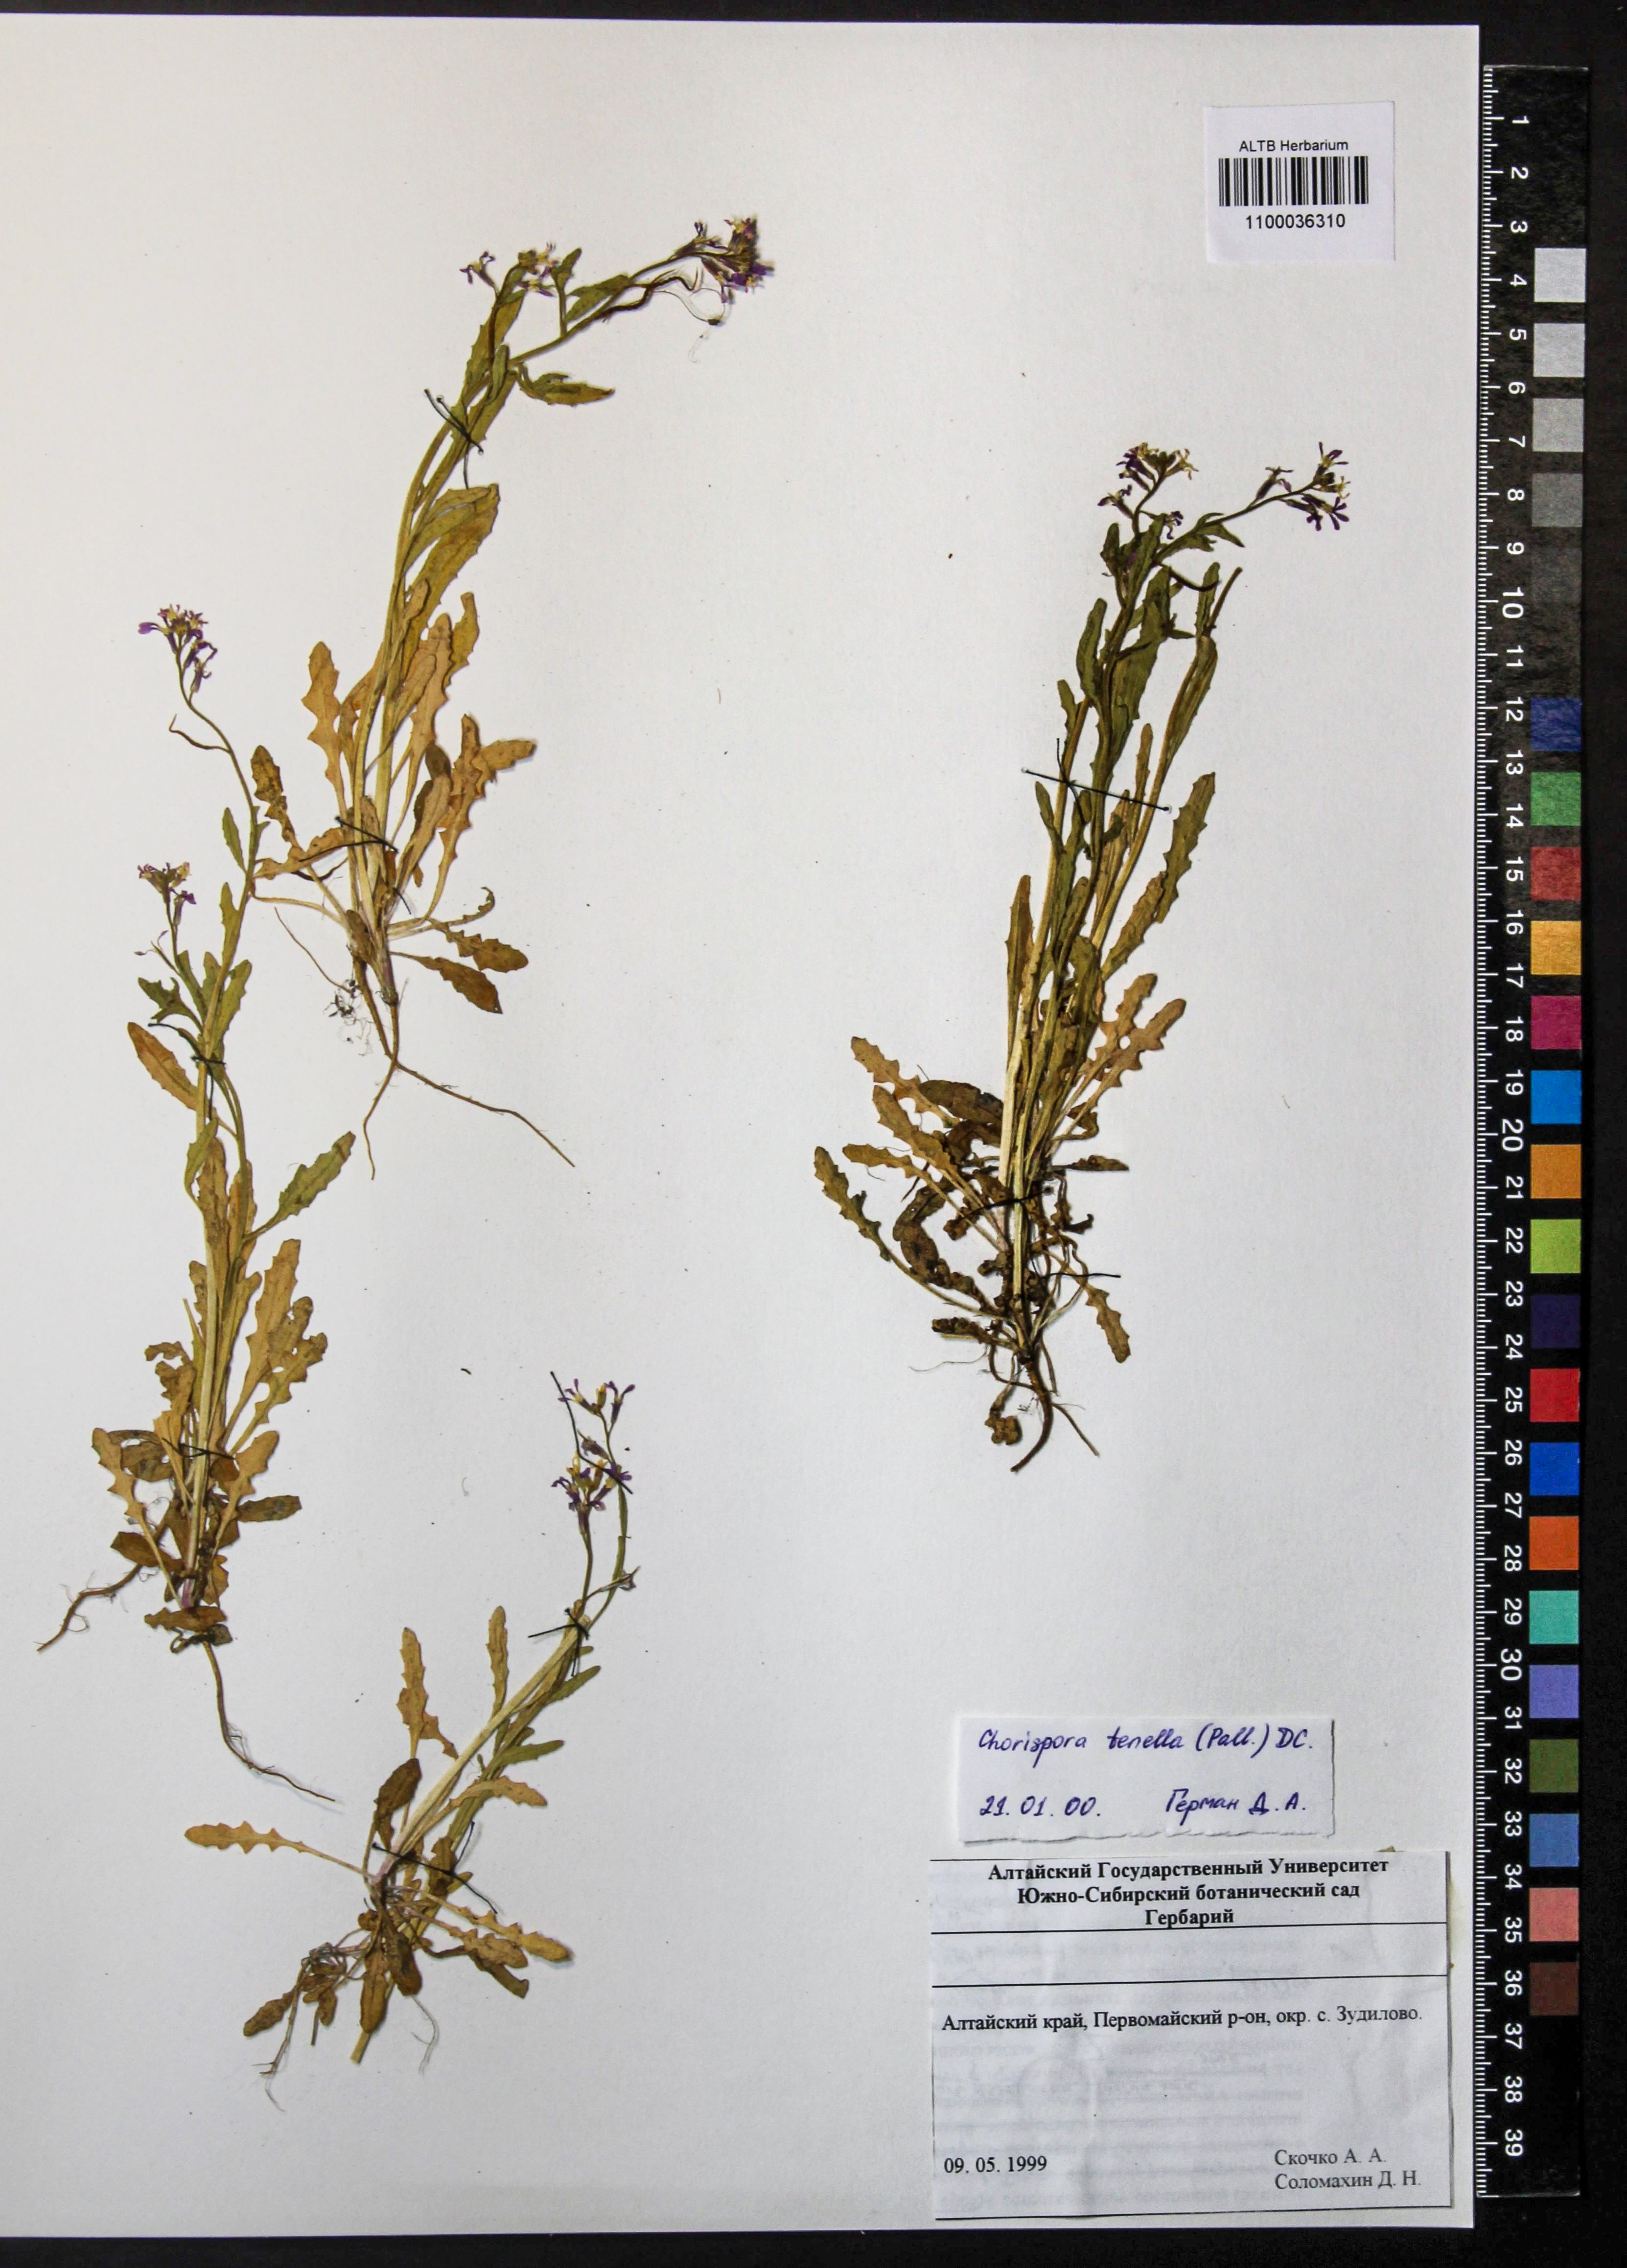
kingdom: Plantae
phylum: Tracheophyta
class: Magnoliopsida
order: Brassicales
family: Brassicaceae
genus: Chorispora
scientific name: Chorispora tenella
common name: Crossflower
